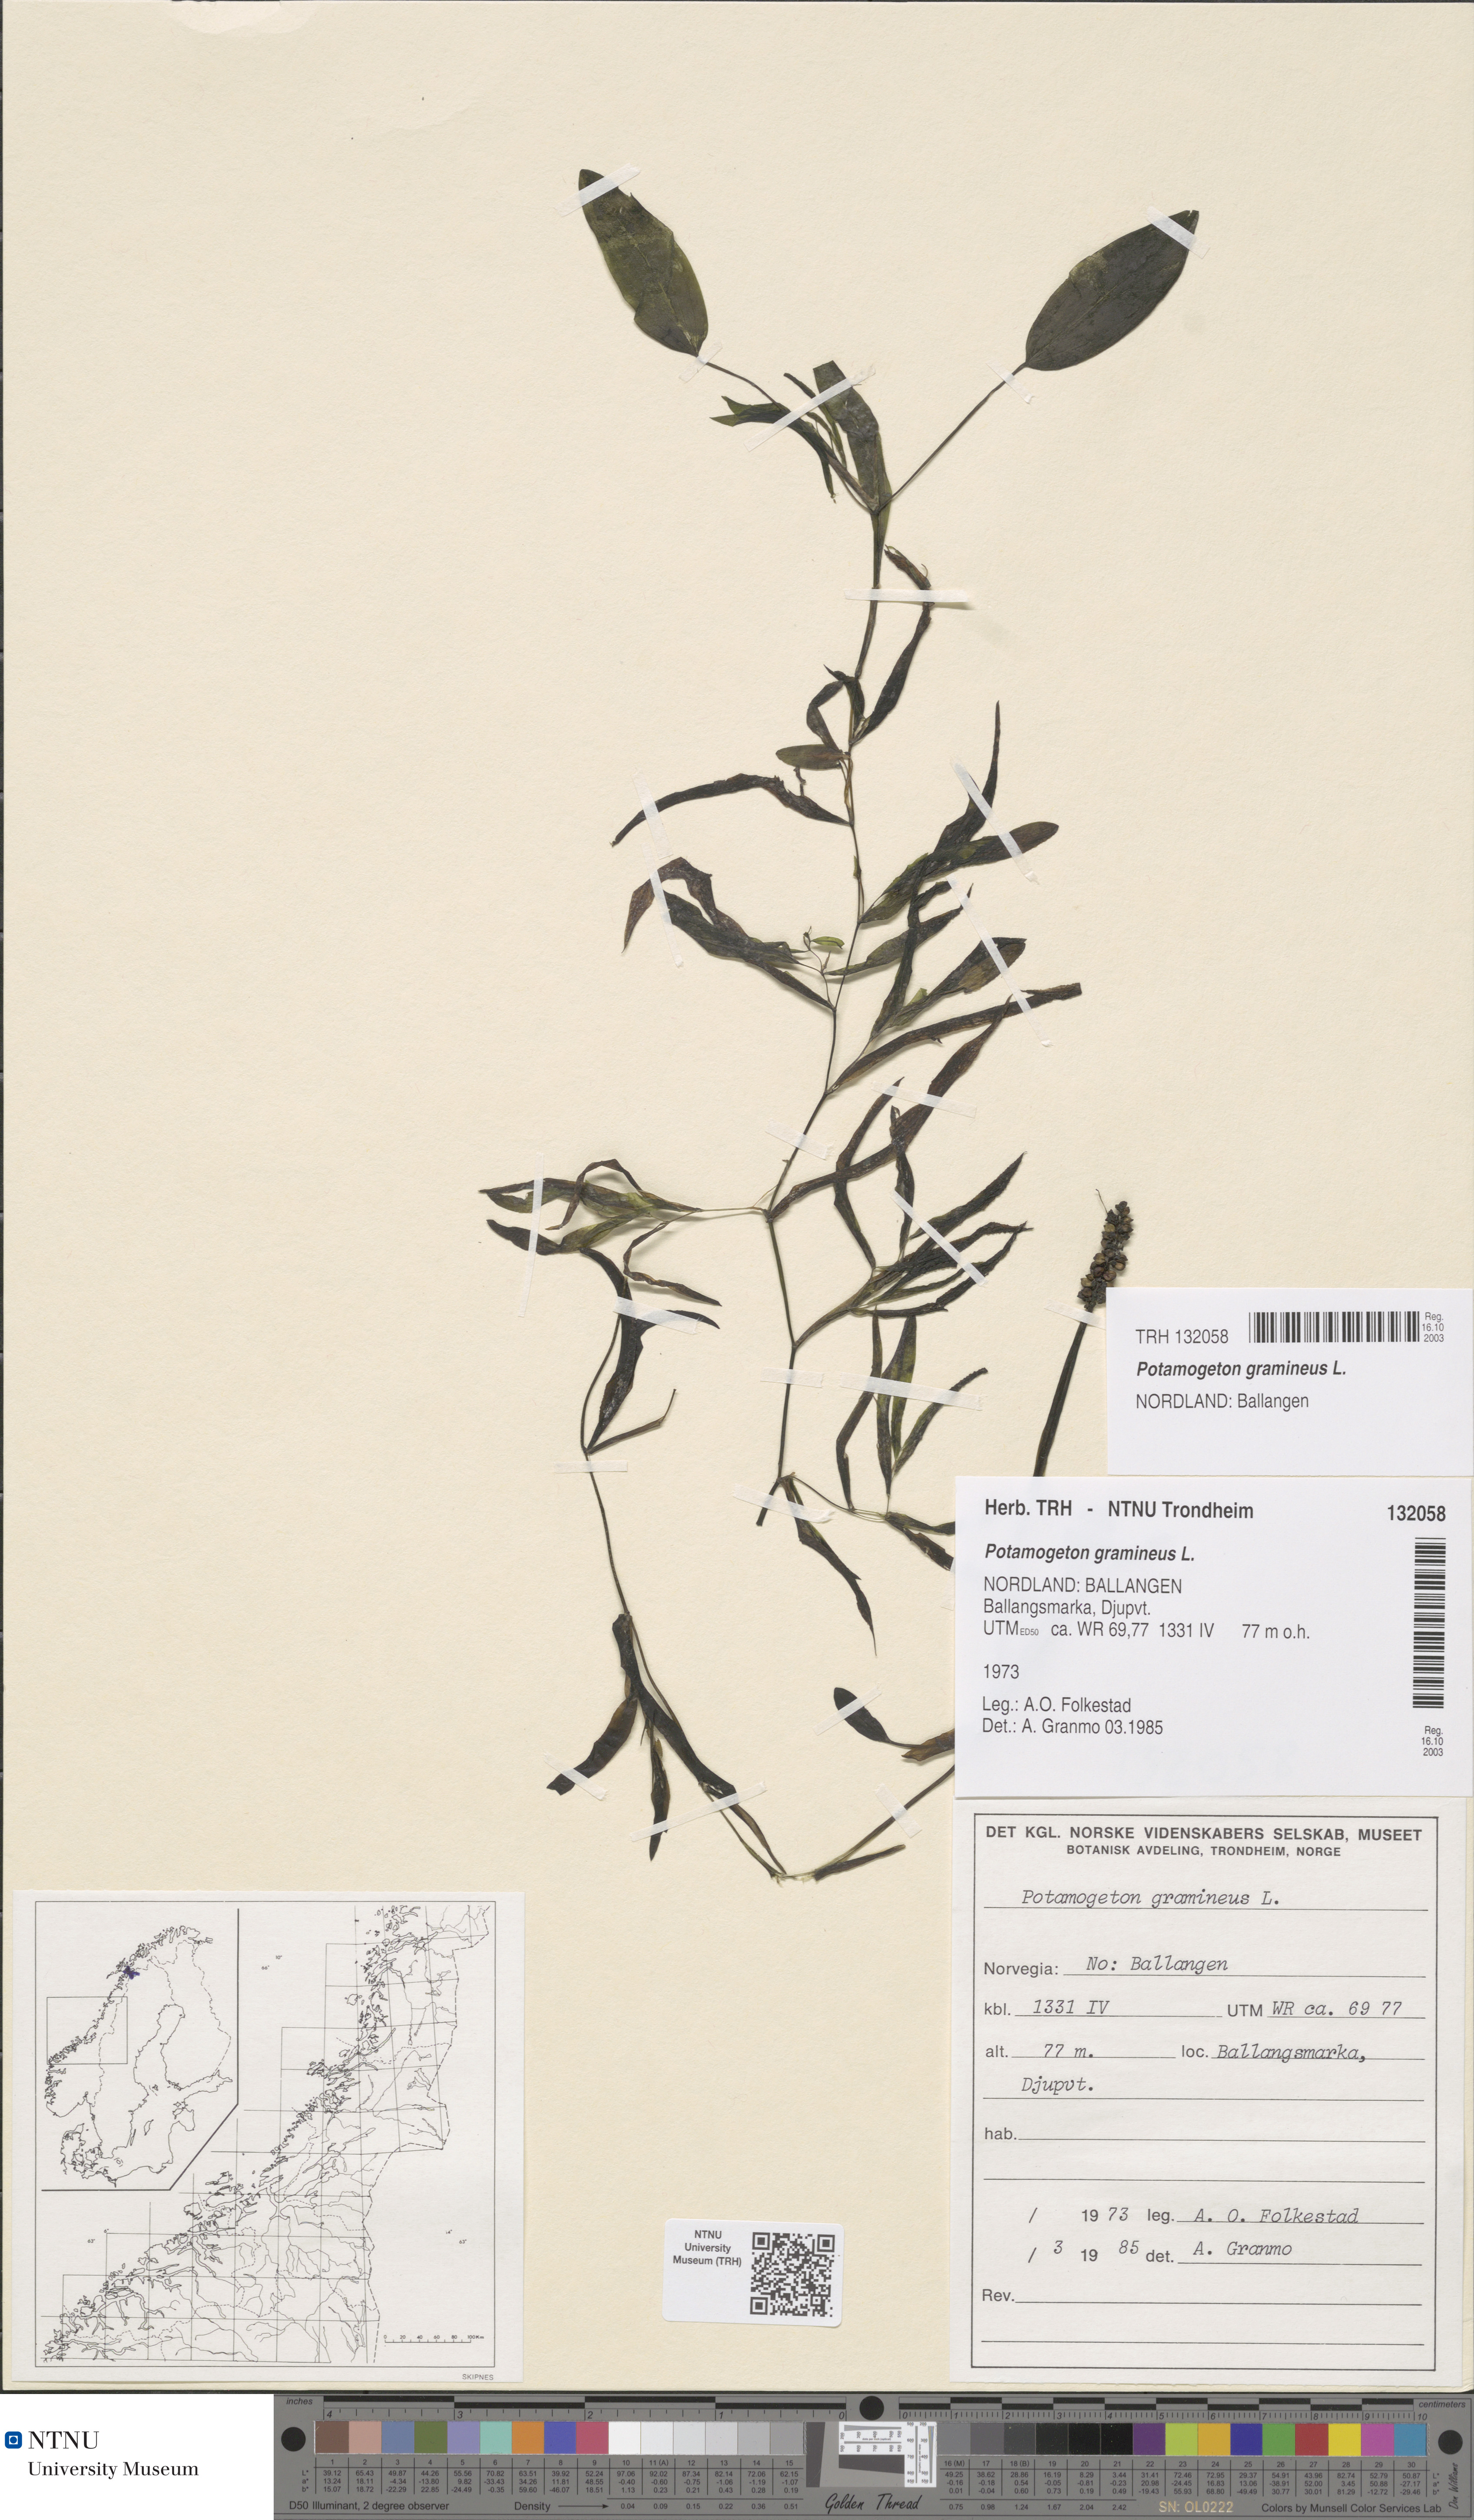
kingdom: Plantae
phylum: Tracheophyta
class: Liliopsida
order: Alismatales
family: Potamogetonaceae
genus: Potamogeton
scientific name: Potamogeton gramineus
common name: Various-leaved pondweed
